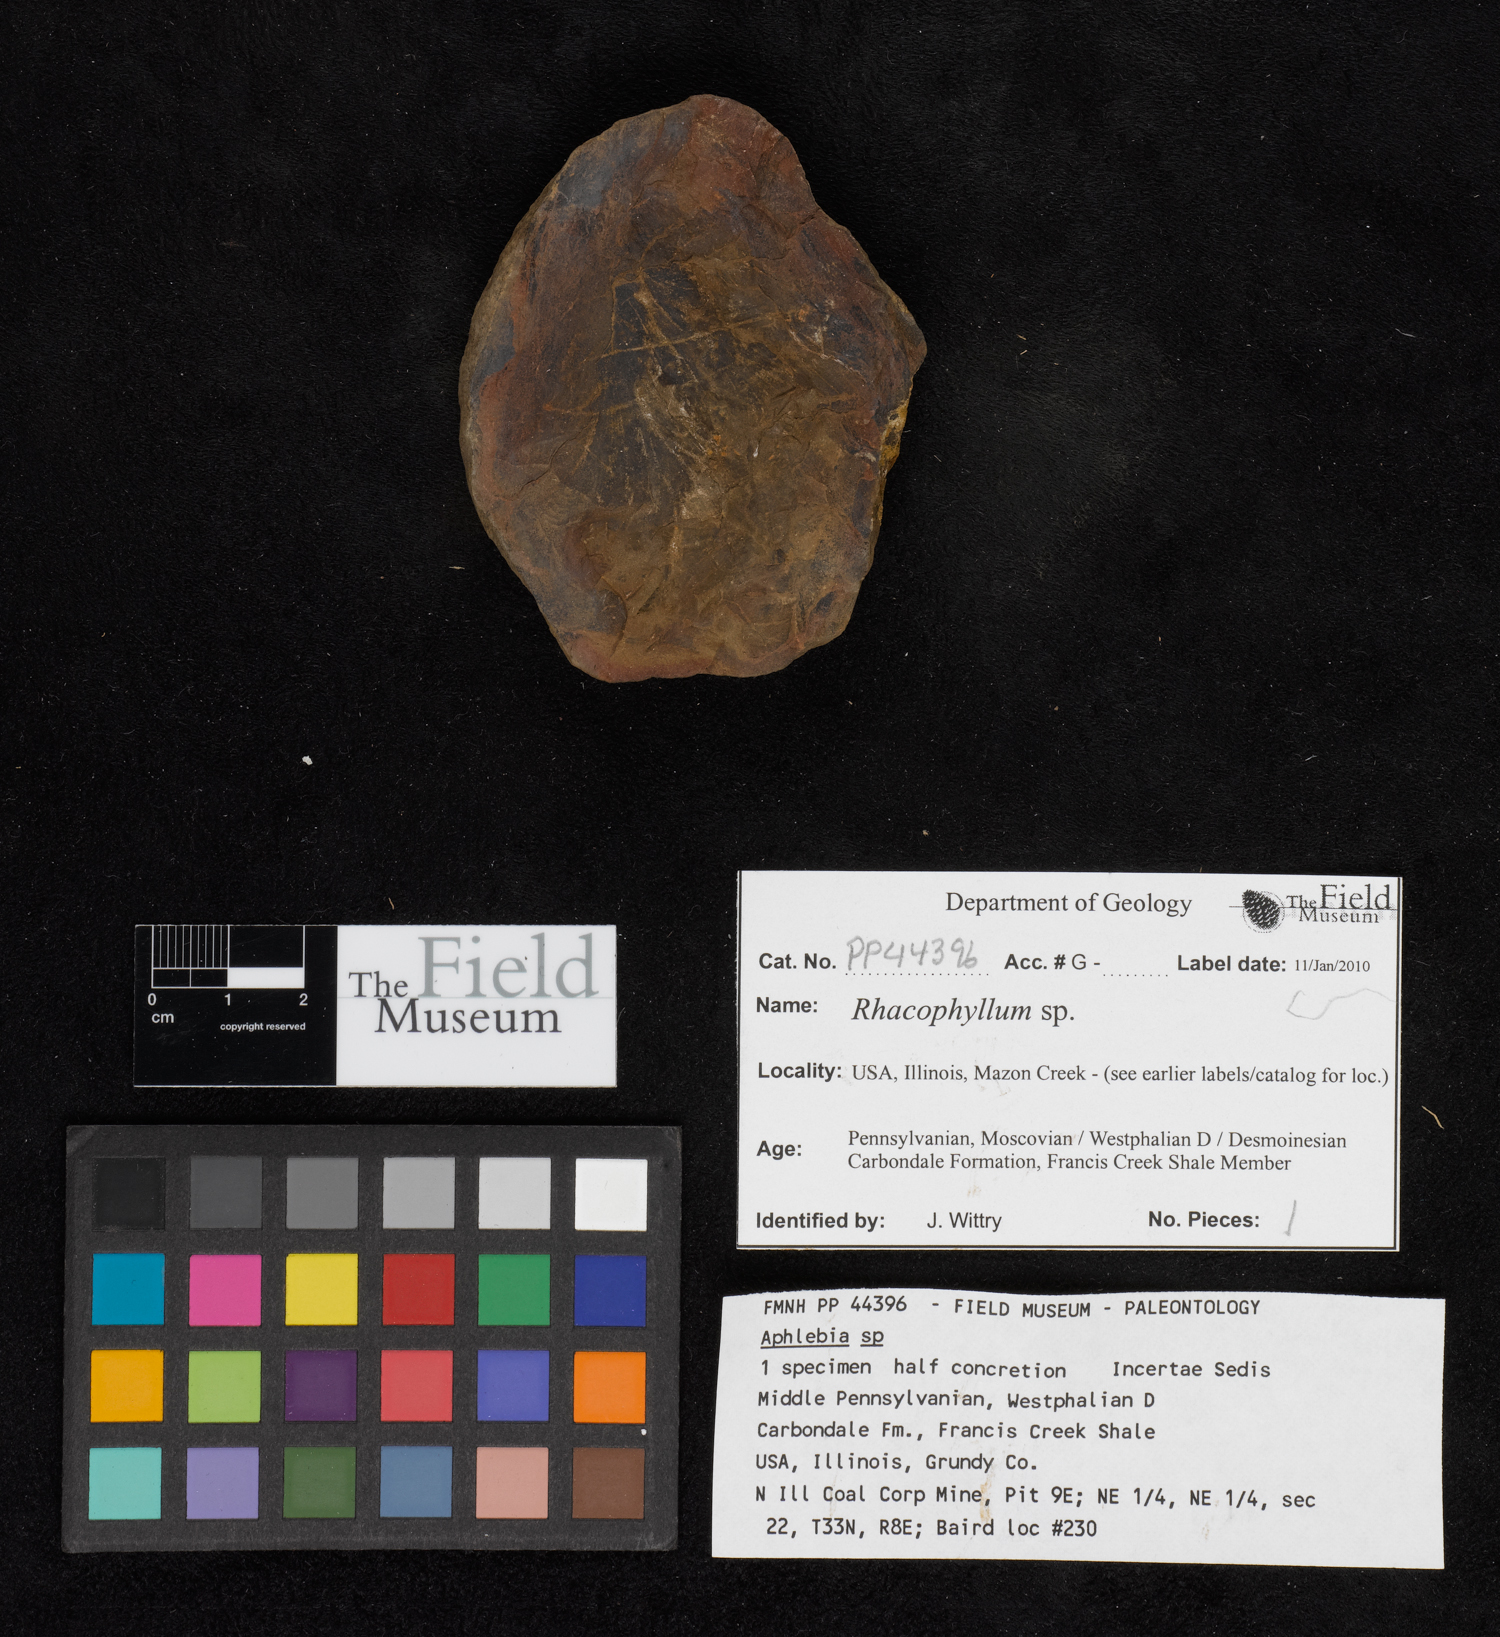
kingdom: Plantae
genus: Rhacophyllum
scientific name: Rhacophyllum
